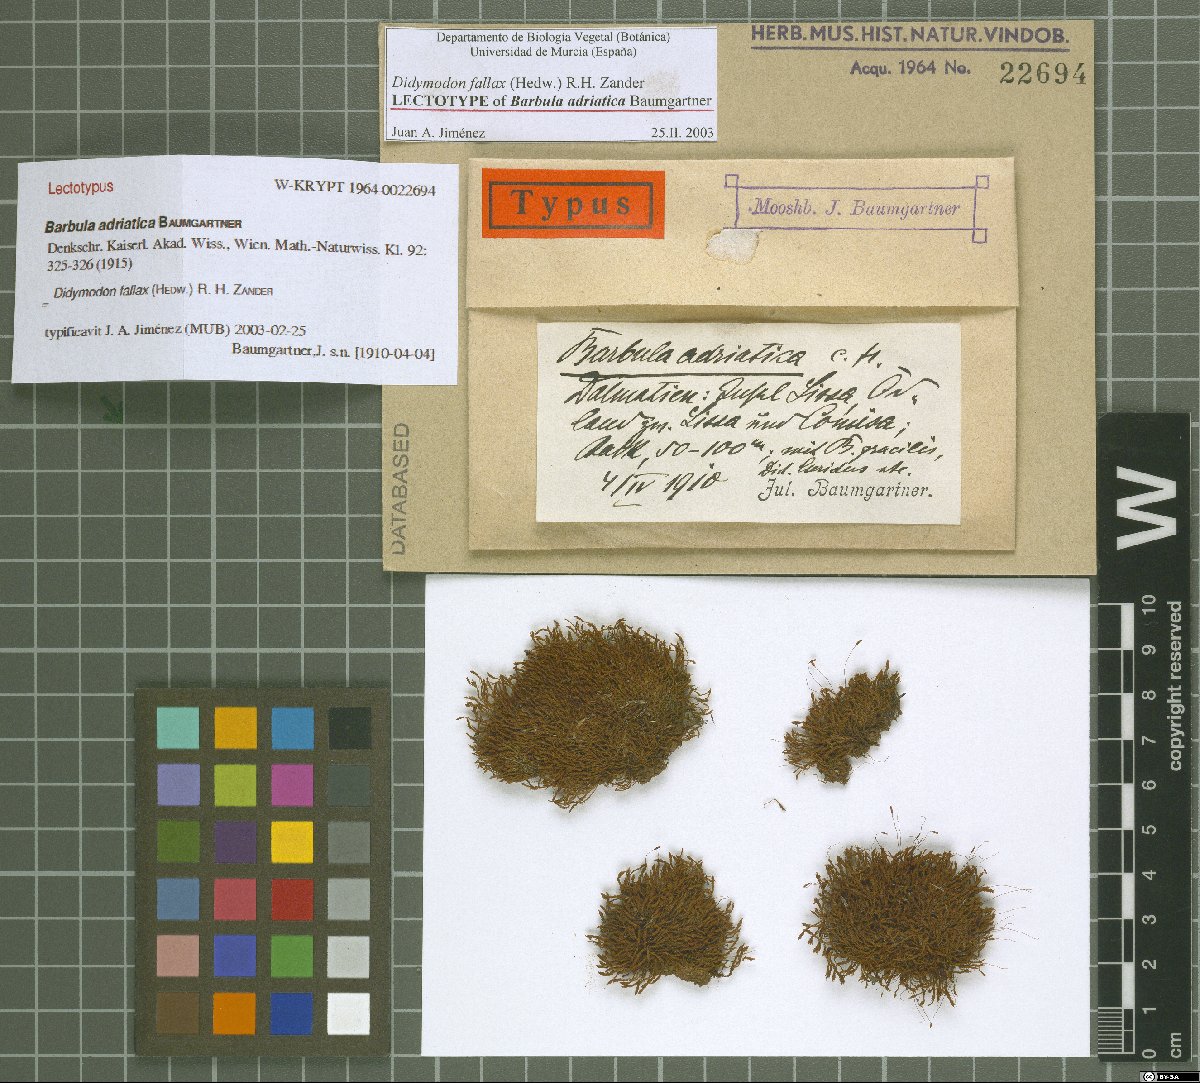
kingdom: Plantae
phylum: Bryophyta
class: Bryopsida
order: Pottiales
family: Pottiaceae
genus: Geheebia
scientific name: Geheebia fallax
